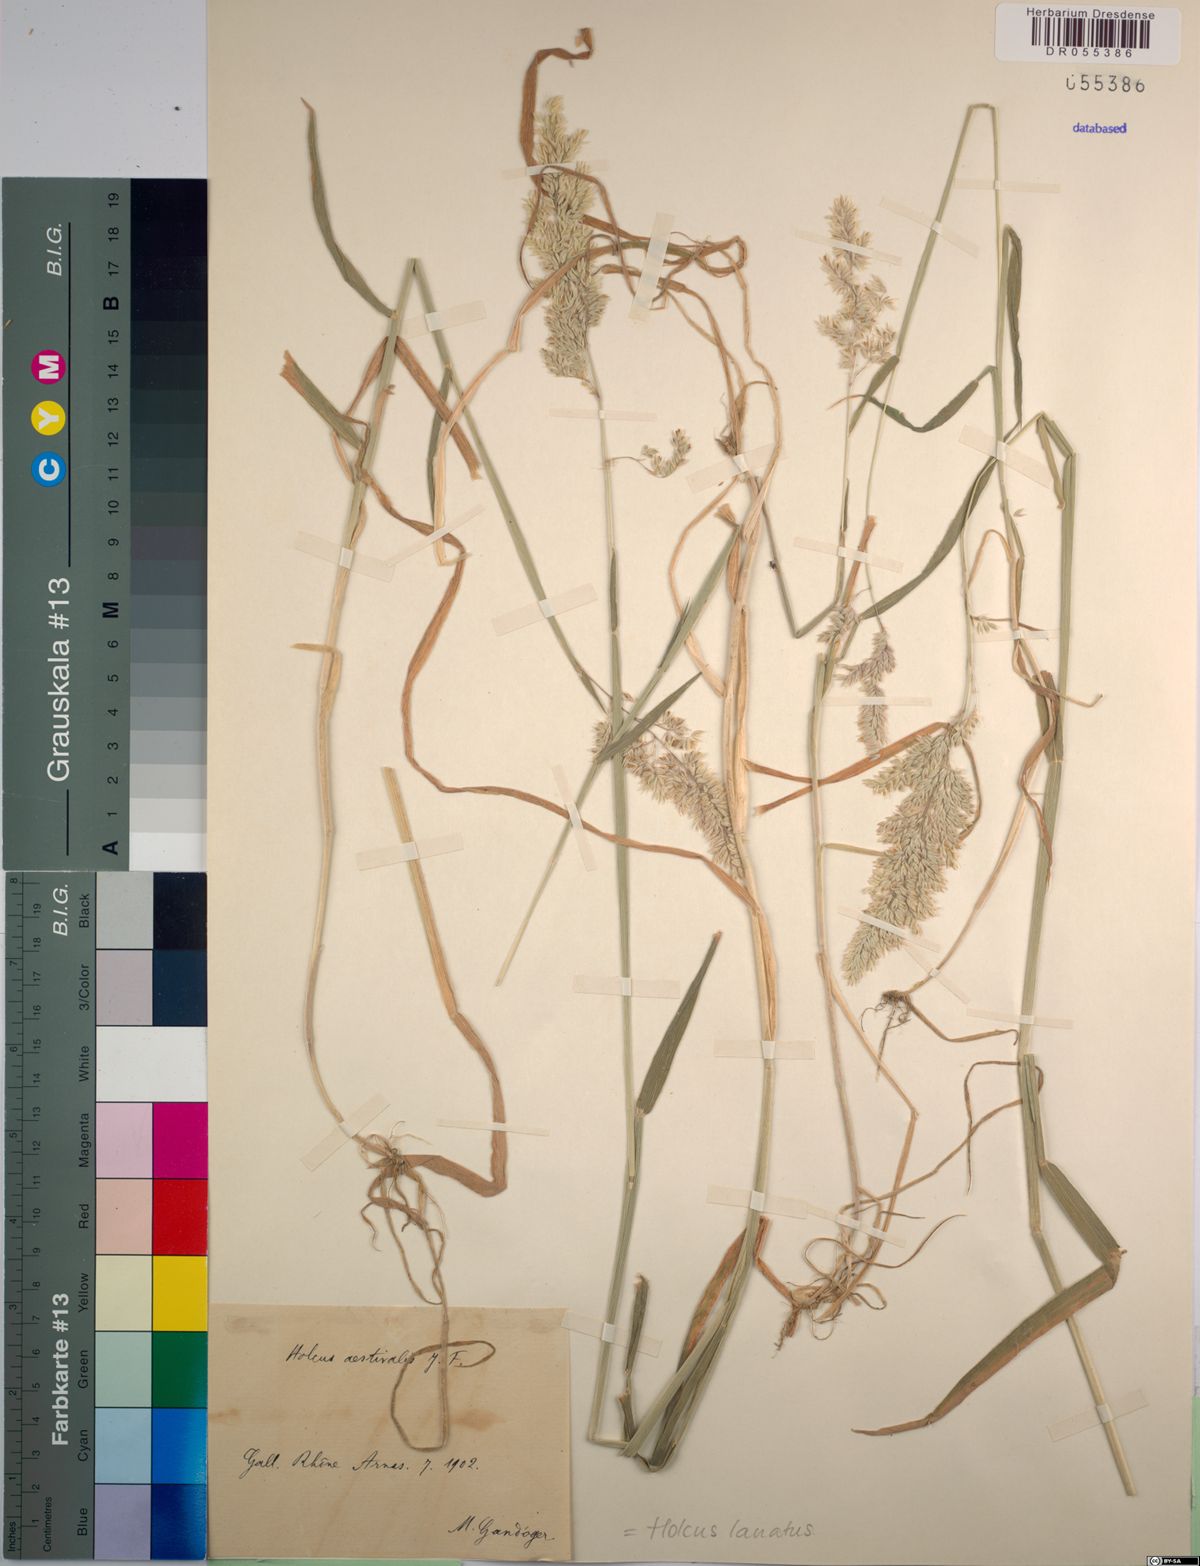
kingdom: Plantae
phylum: Tracheophyta
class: Liliopsida
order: Poales
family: Poaceae
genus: Holcus
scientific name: Holcus lanatus
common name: Yorkshire-fog
